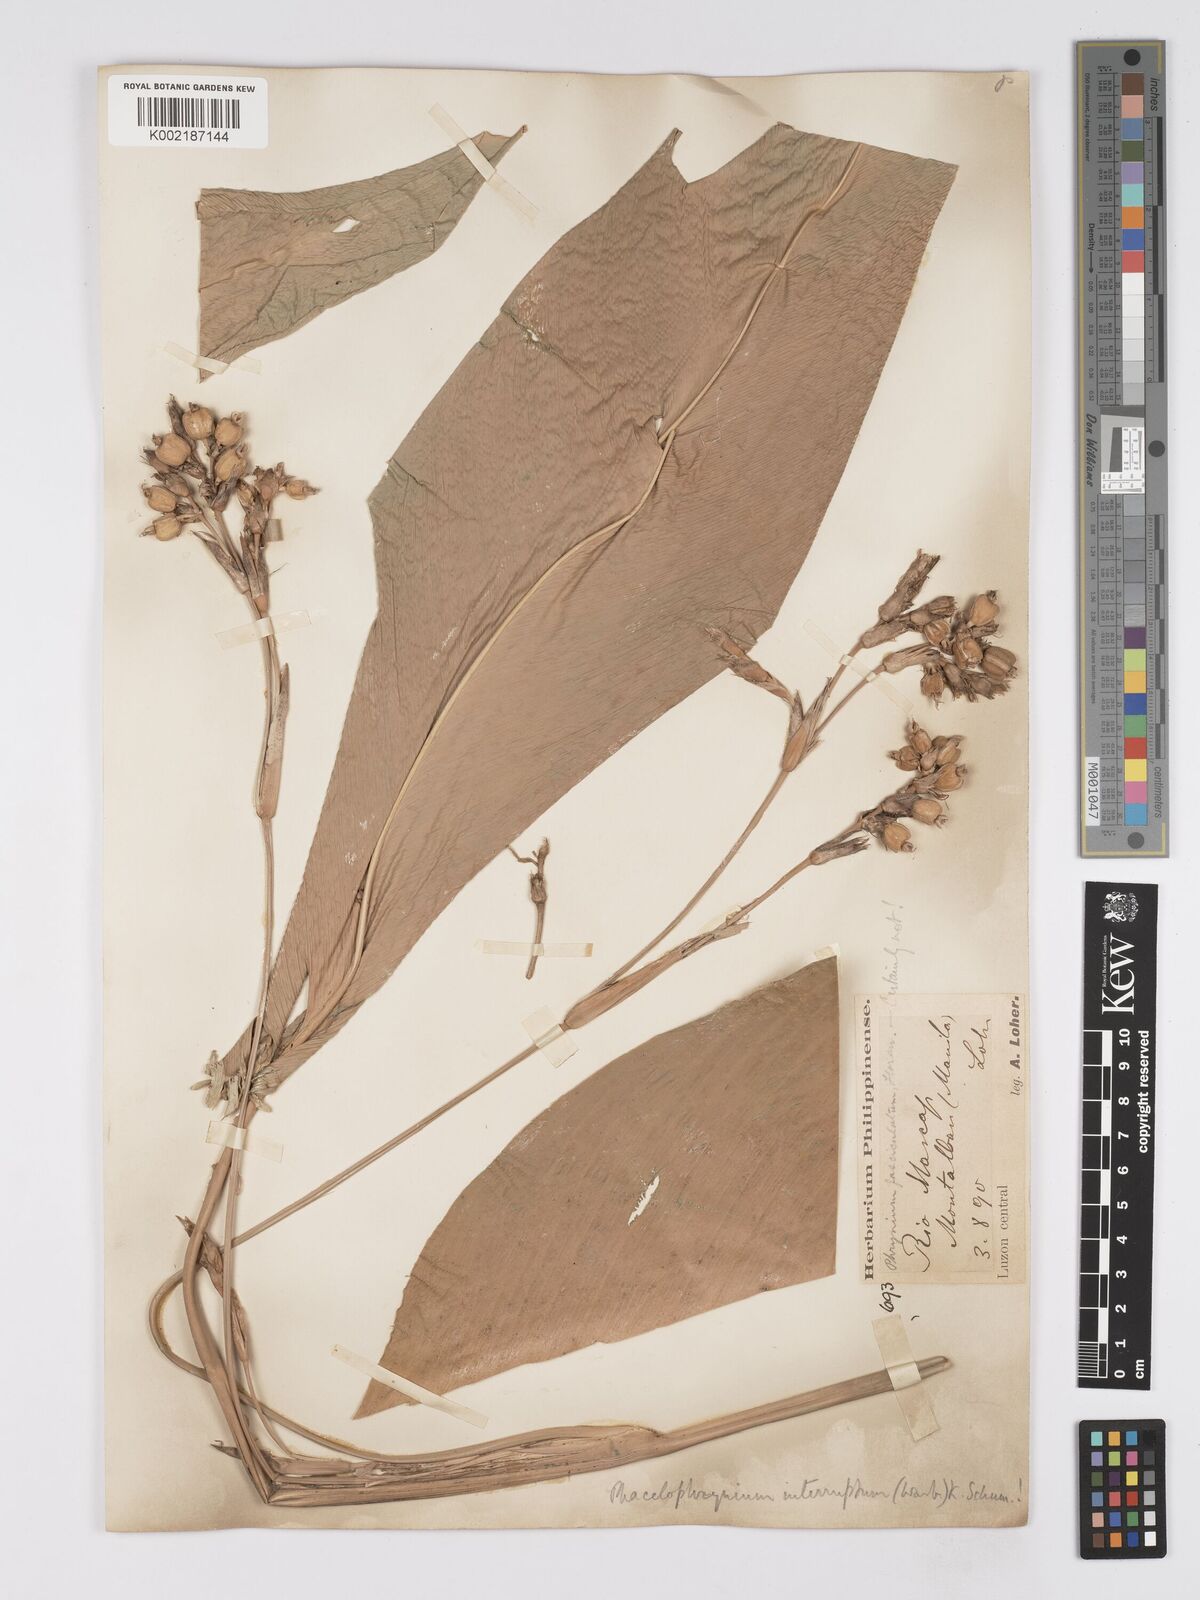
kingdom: Plantae
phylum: Tracheophyta
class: Liliopsida
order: Zingiberales
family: Marantaceae
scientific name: Marantaceae
